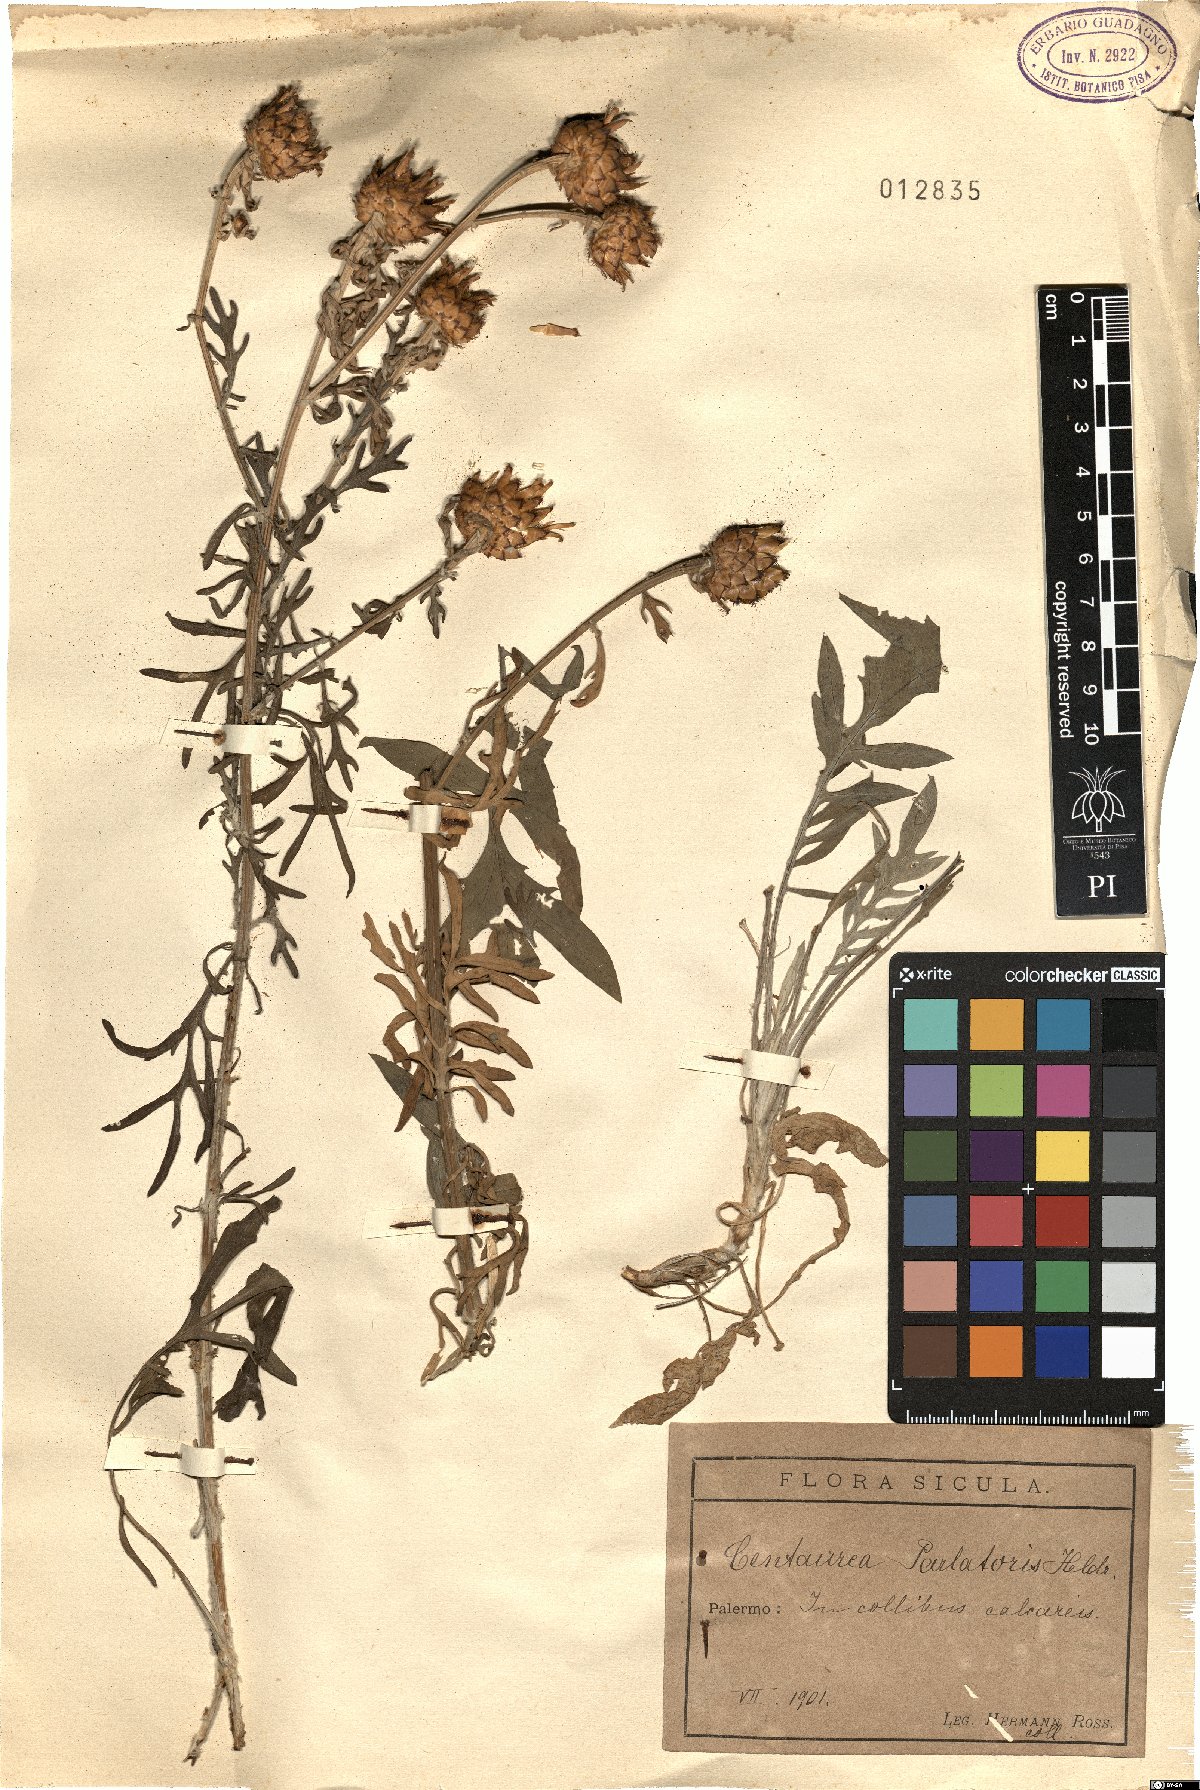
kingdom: Plantae
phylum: Tracheophyta
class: Magnoliopsida
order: Asterales
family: Asteraceae
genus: Centaurea
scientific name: Centaurea parlatoris
